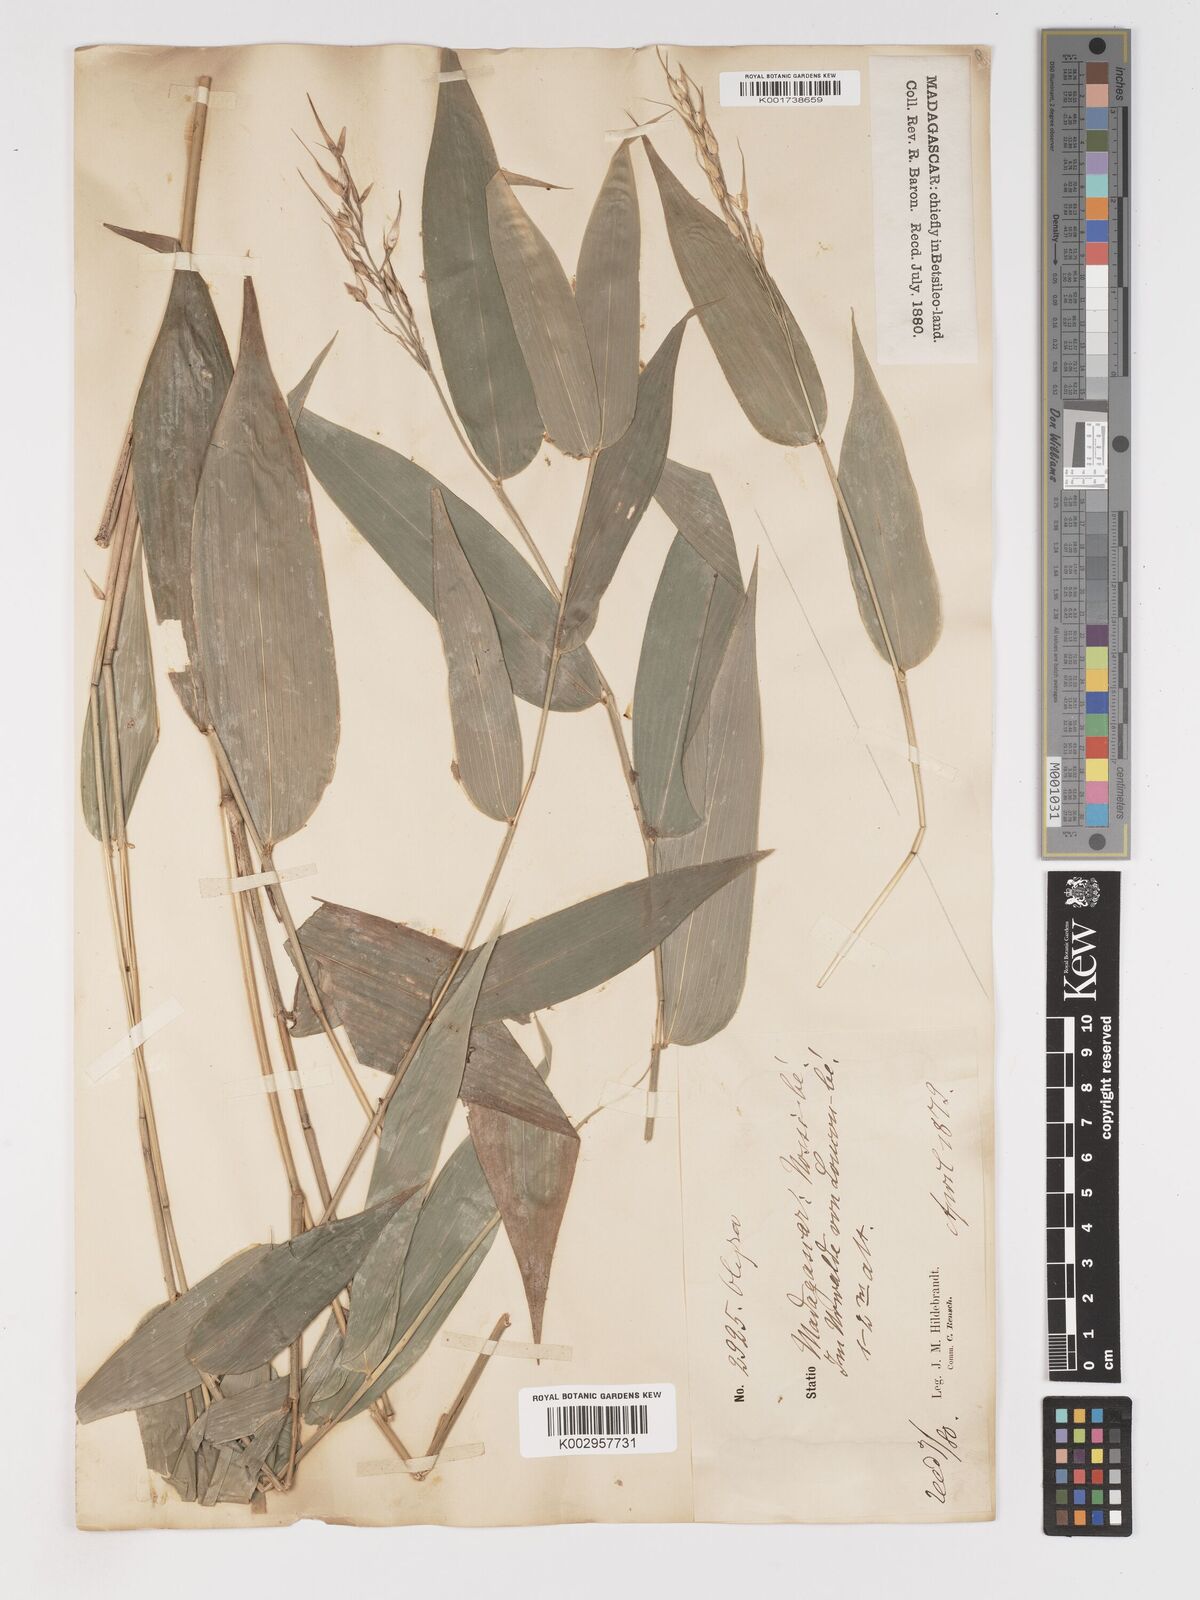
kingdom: Plantae
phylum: Tracheophyta
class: Liliopsida
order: Poales
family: Poaceae
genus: Olyra
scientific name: Olyra latifolia
